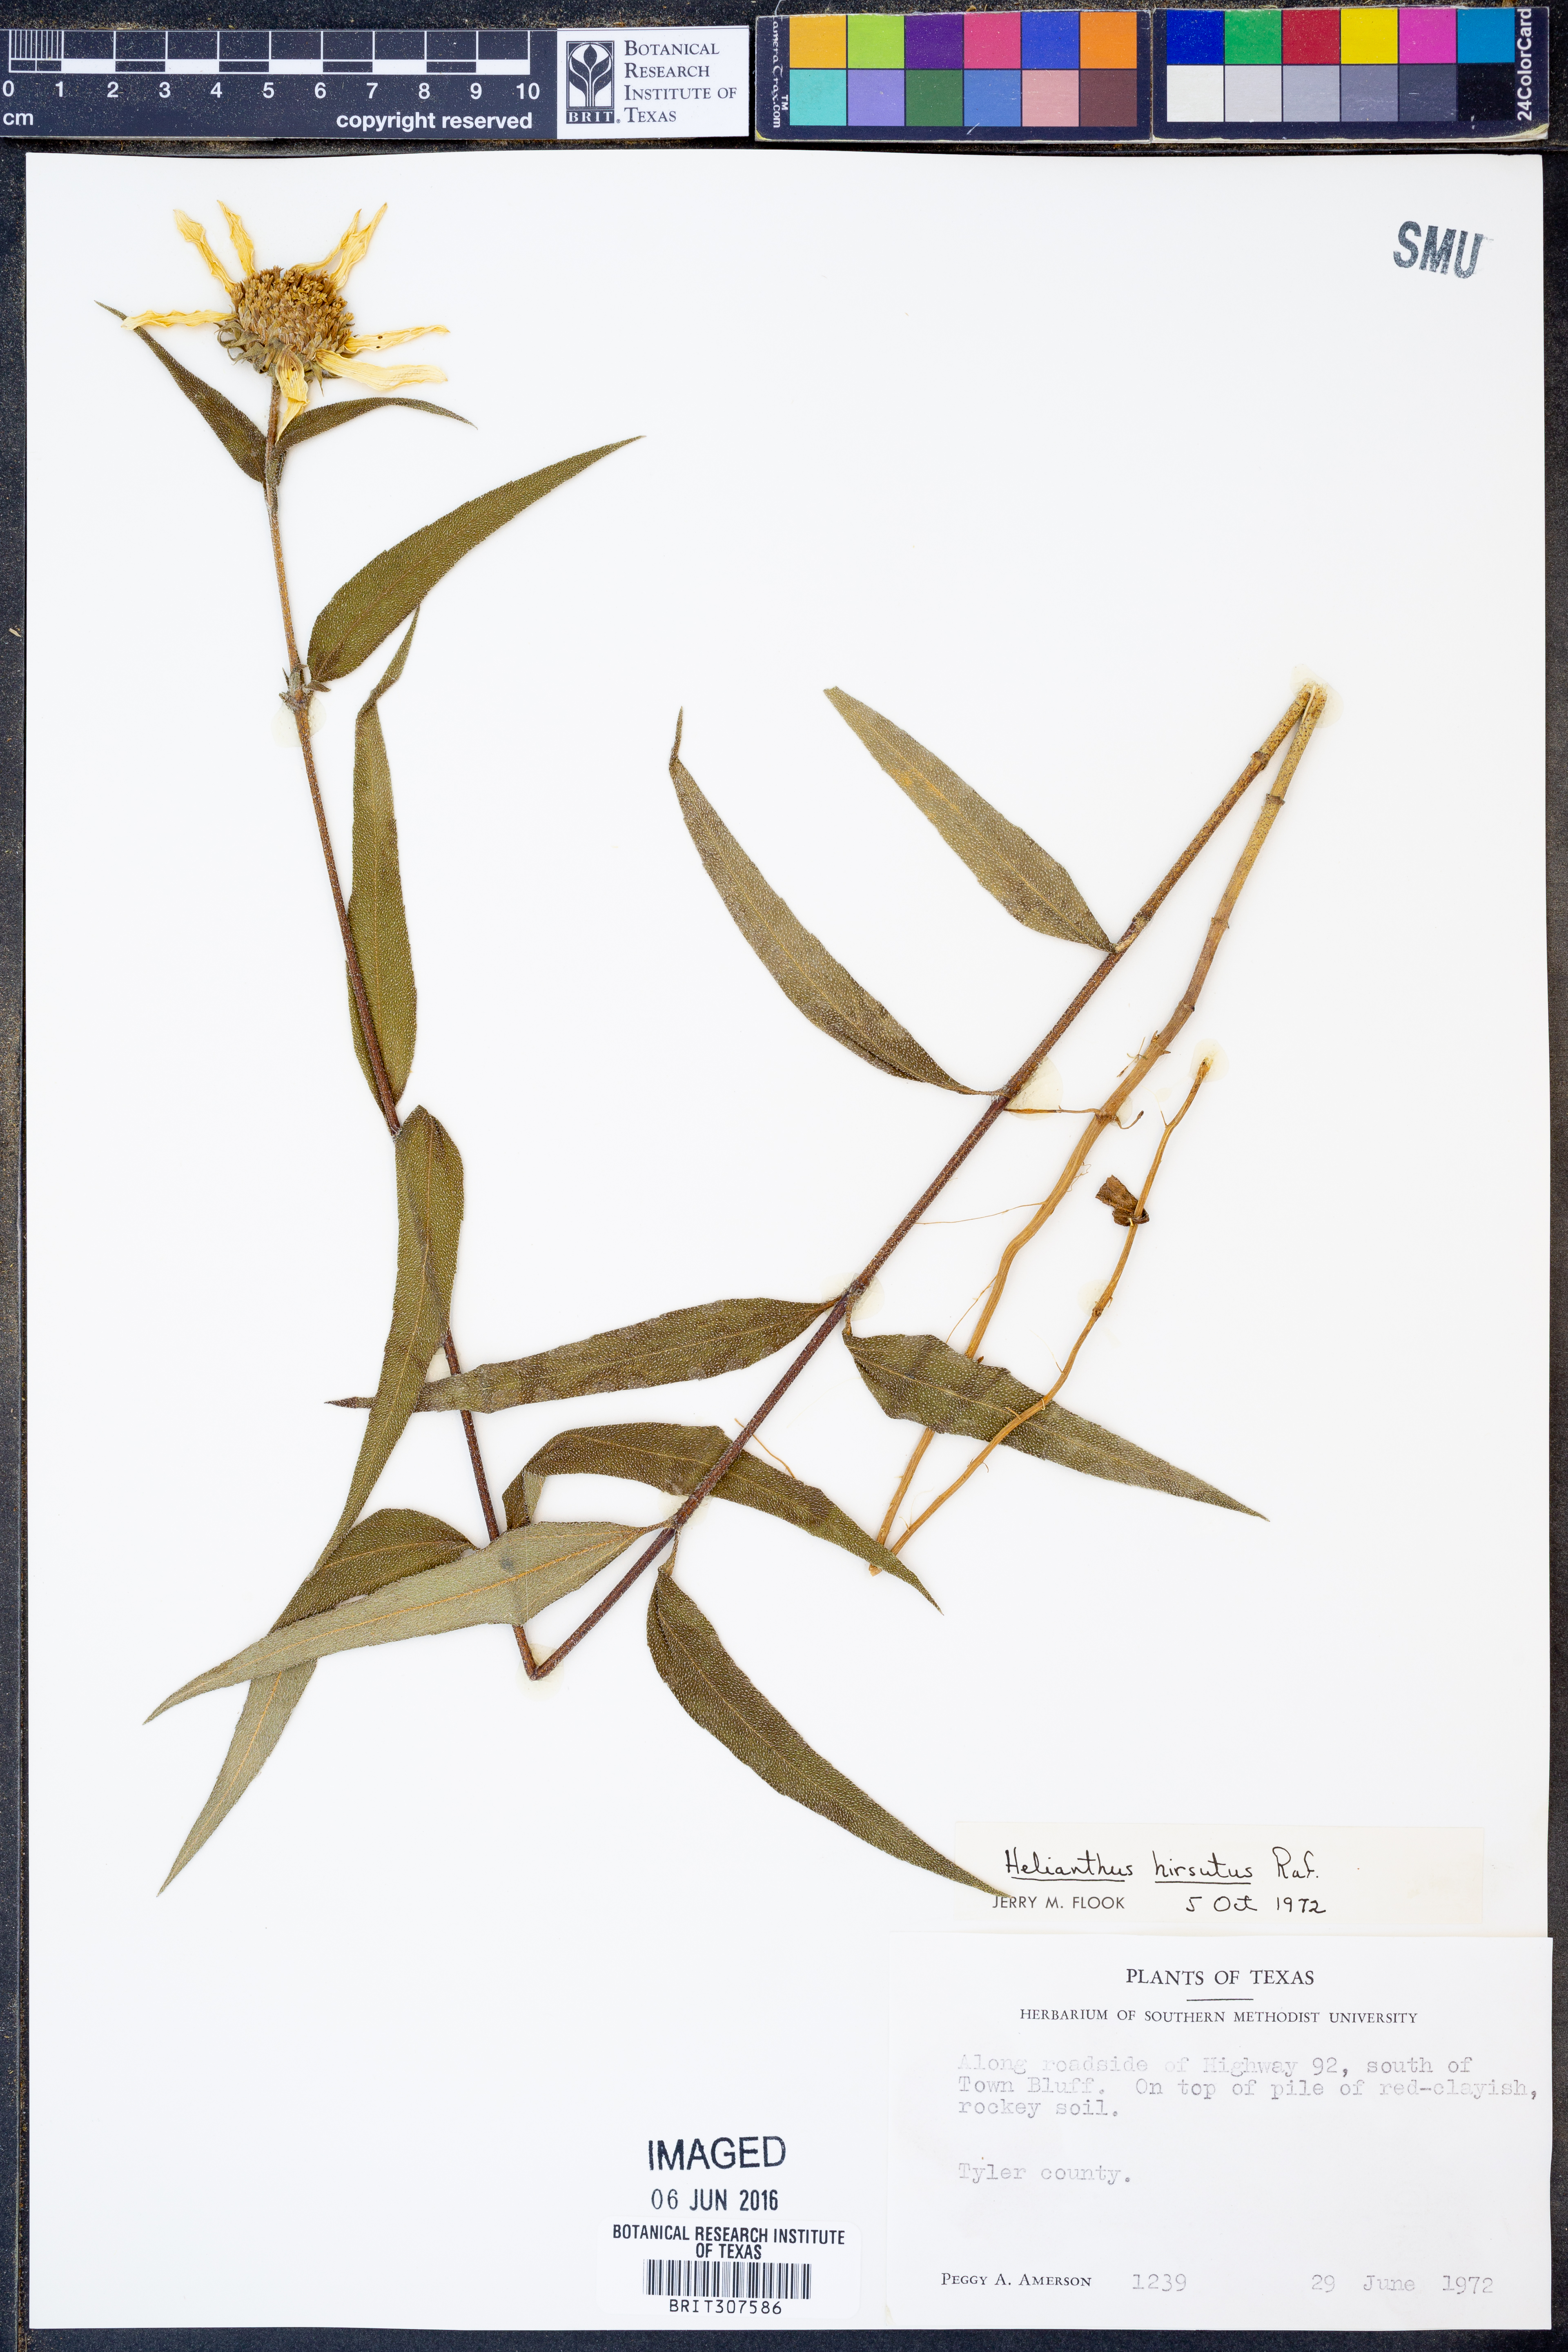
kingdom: Plantae
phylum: Tracheophyta
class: Magnoliopsida
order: Asterales
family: Asteraceae
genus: Helianthus
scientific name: Helianthus hirsutus
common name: Hairy sunflower
